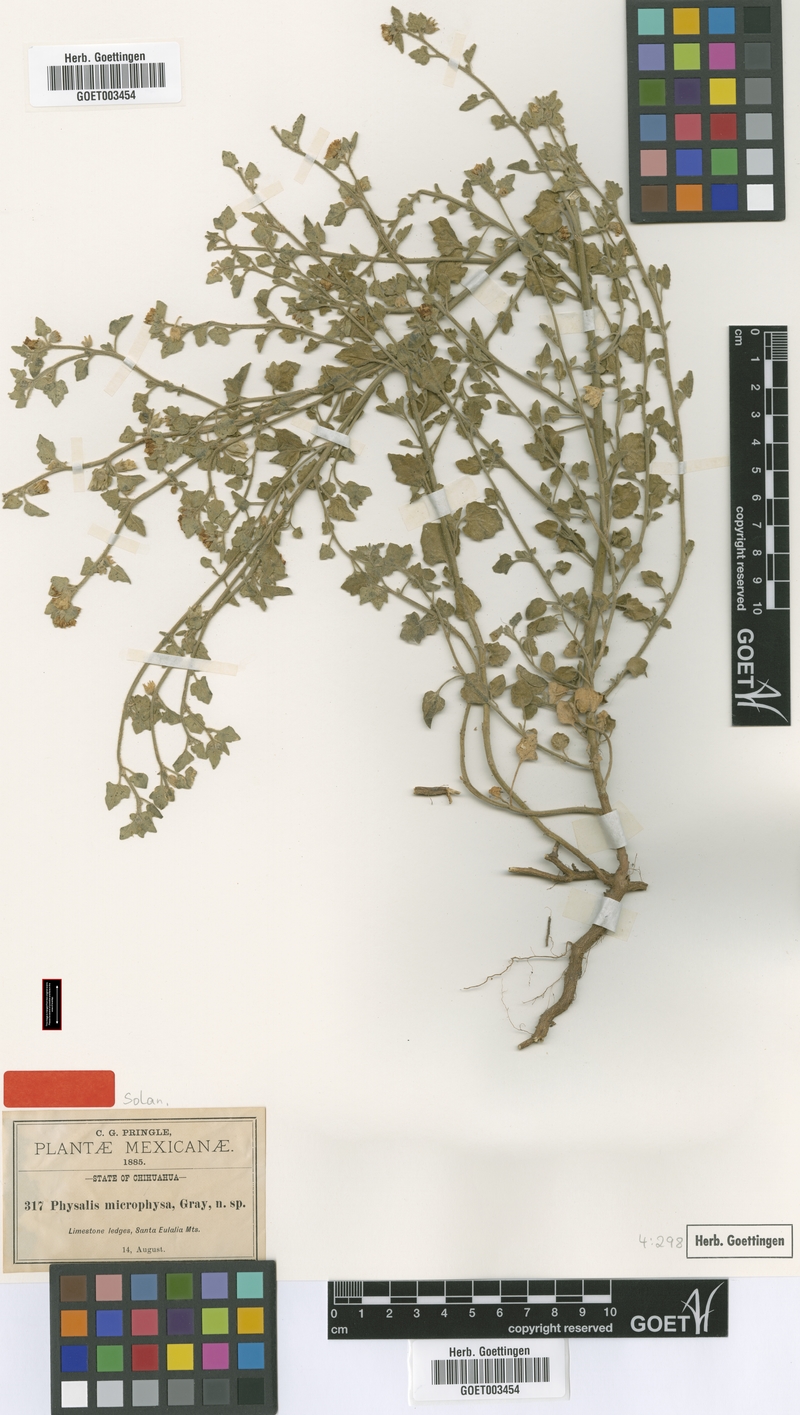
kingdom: Plantae
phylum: Tracheophyta
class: Magnoliopsida
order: Solanales
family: Solanaceae
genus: Physalis
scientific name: Physalis microphysa
